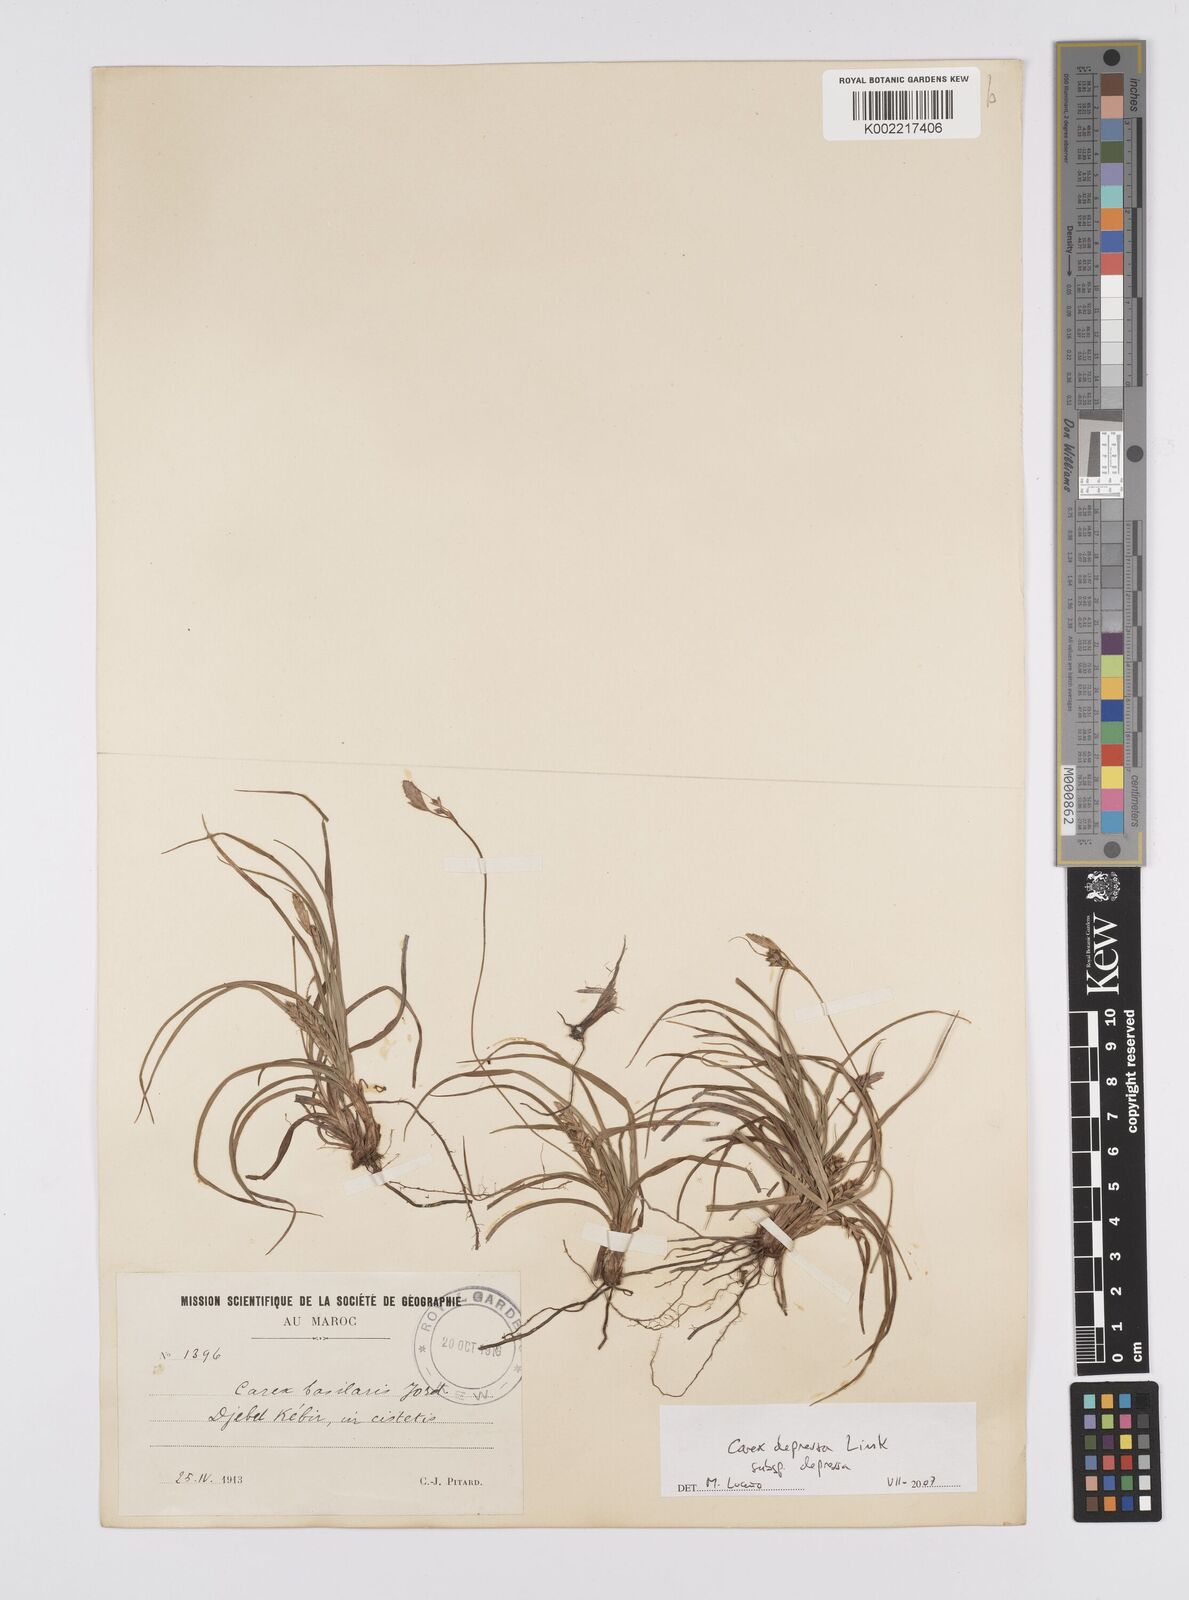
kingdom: Plantae
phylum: Tracheophyta
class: Liliopsida
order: Poales
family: Cyperaceae
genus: Carex
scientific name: Carex depressa
